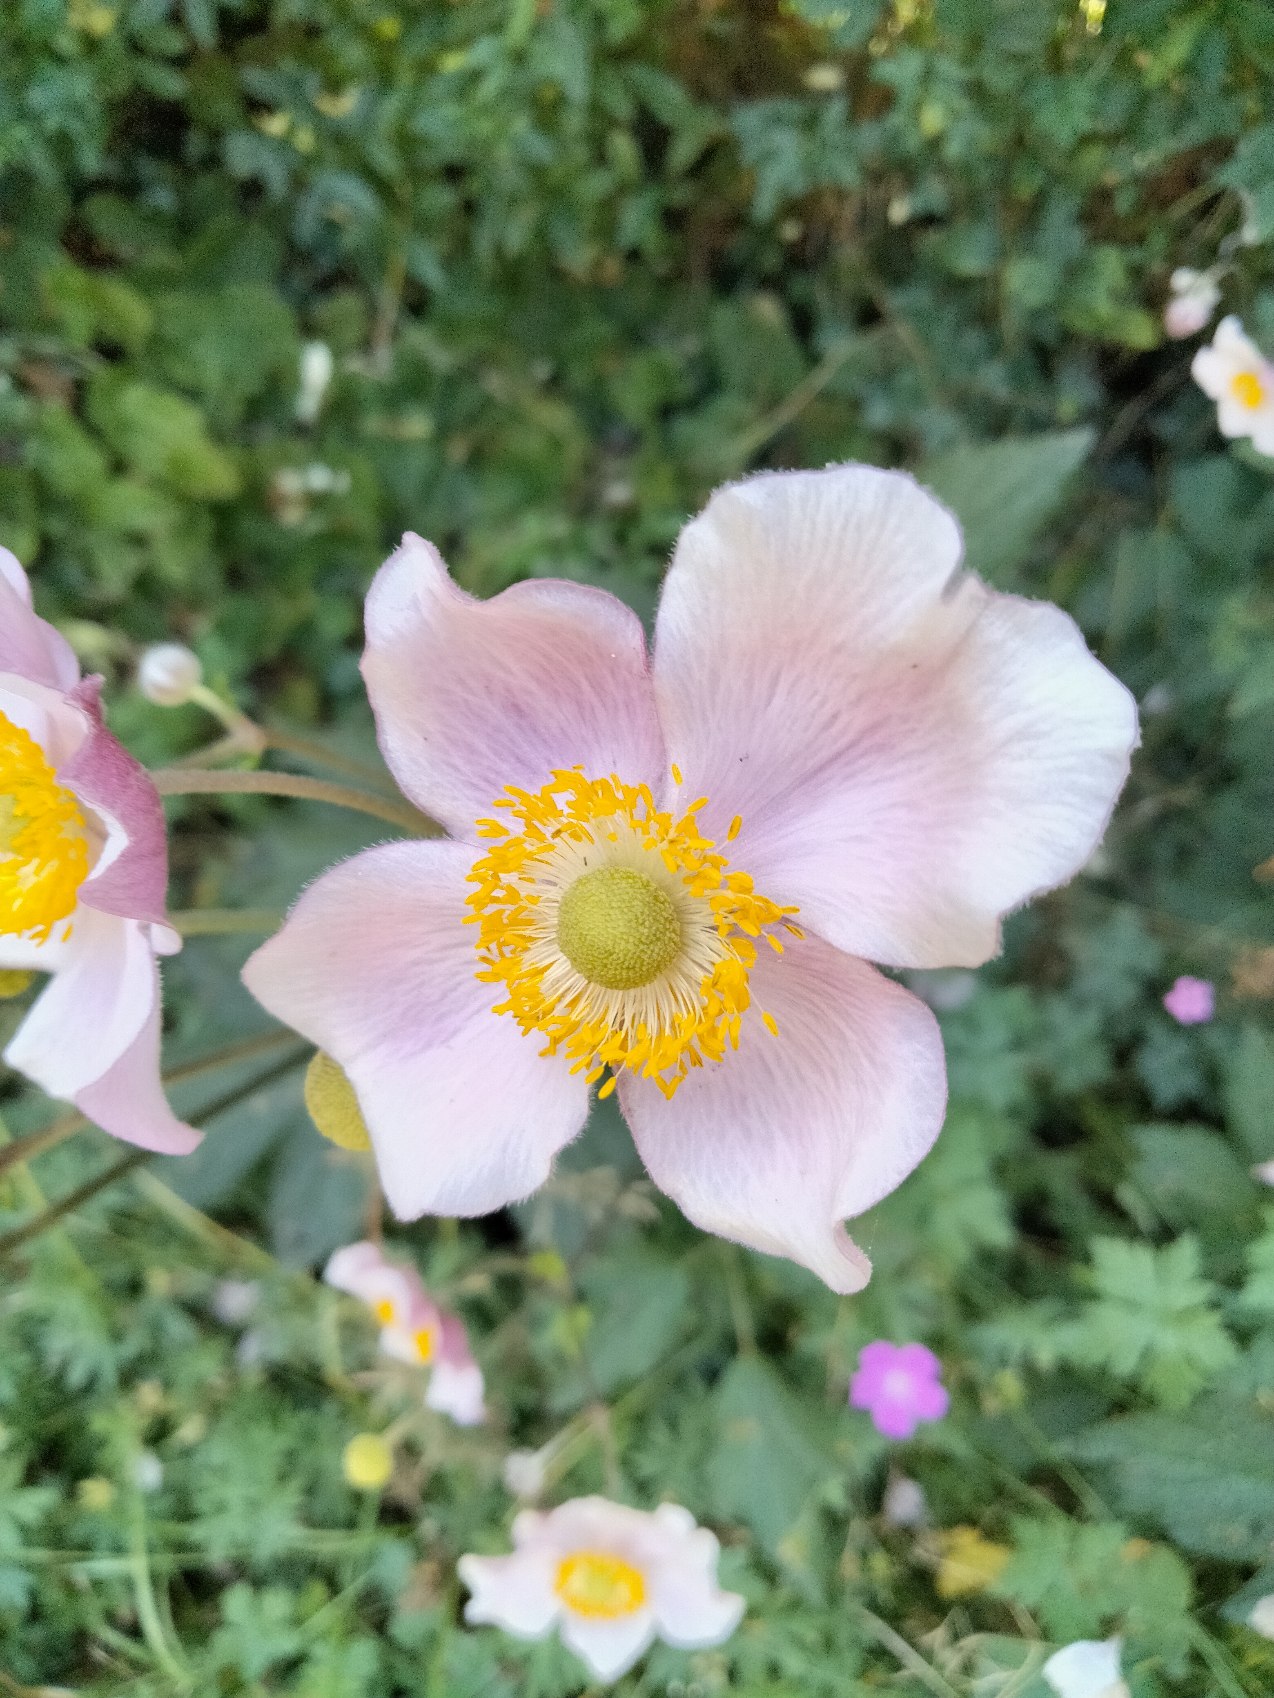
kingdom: Plantae
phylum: Tracheophyta
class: Magnoliopsida
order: Ranunculales
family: Ranunculaceae
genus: Eriocapitella
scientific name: Eriocapitella hupehensis
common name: Høst-anemone
